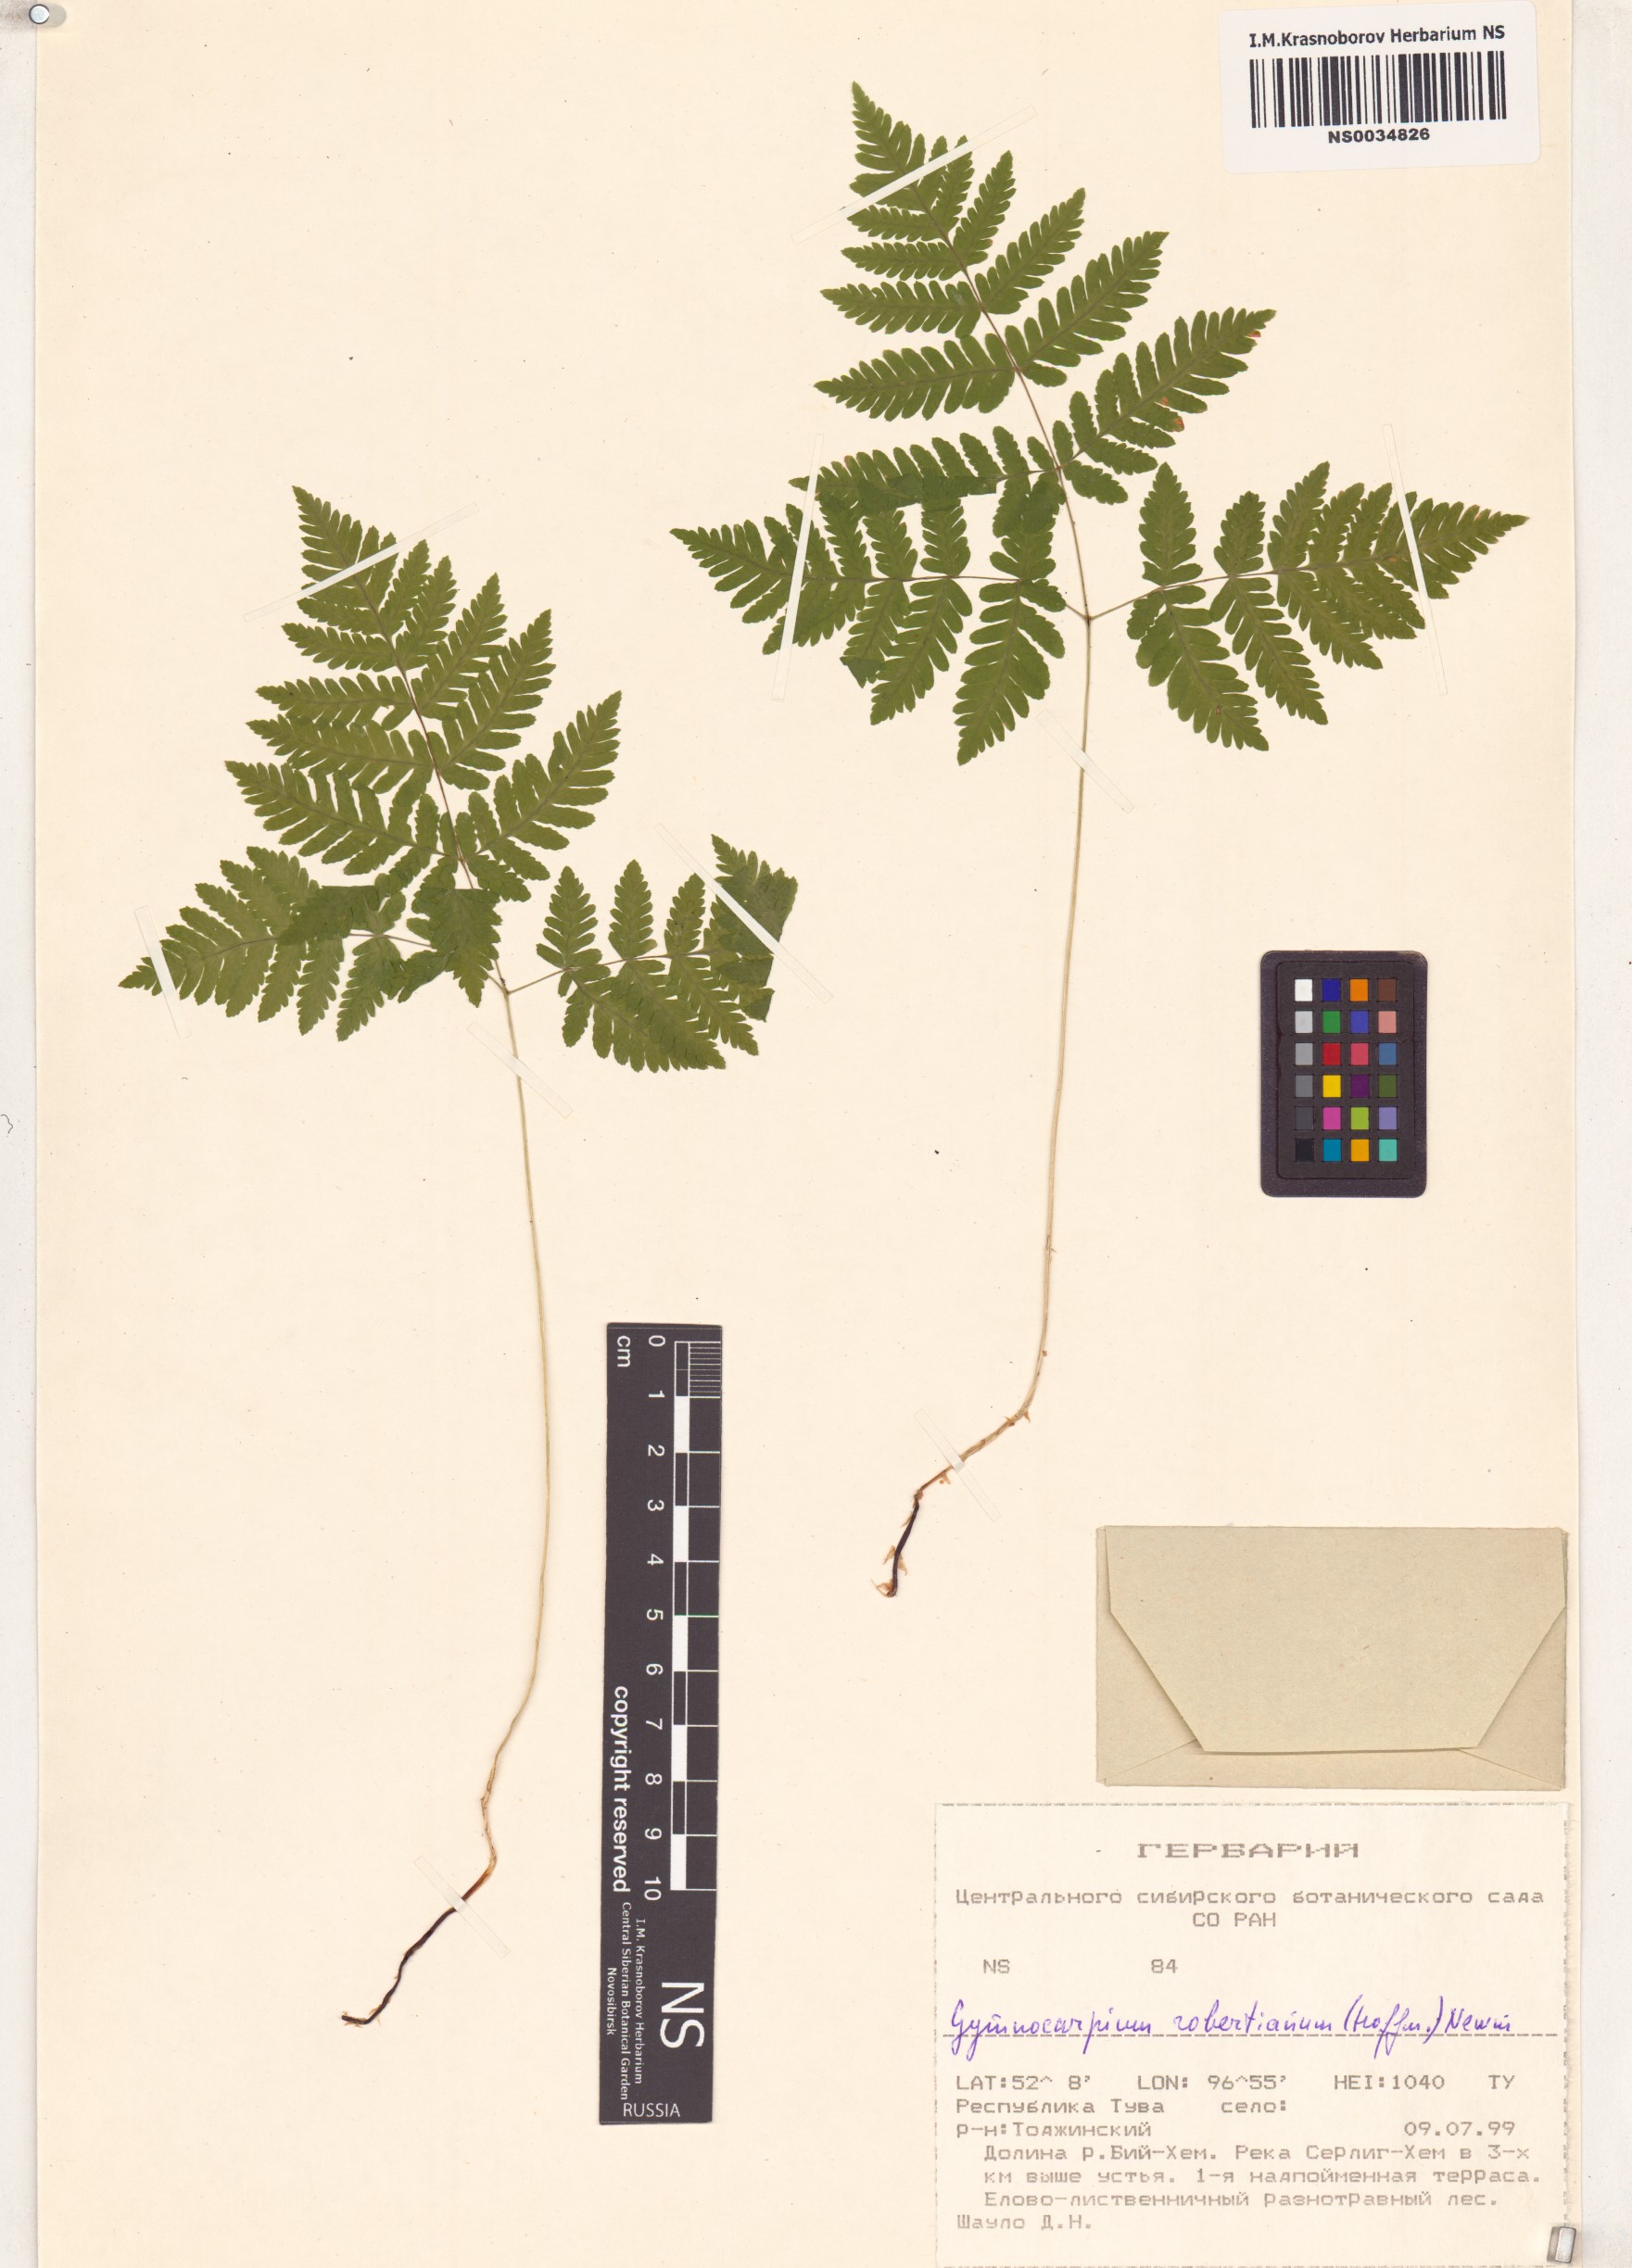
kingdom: Plantae
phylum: Tracheophyta
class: Polypodiopsida
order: Polypodiales
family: Cystopteridaceae
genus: Gymnocarpium
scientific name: Gymnocarpium robertianum
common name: Limestone fern
